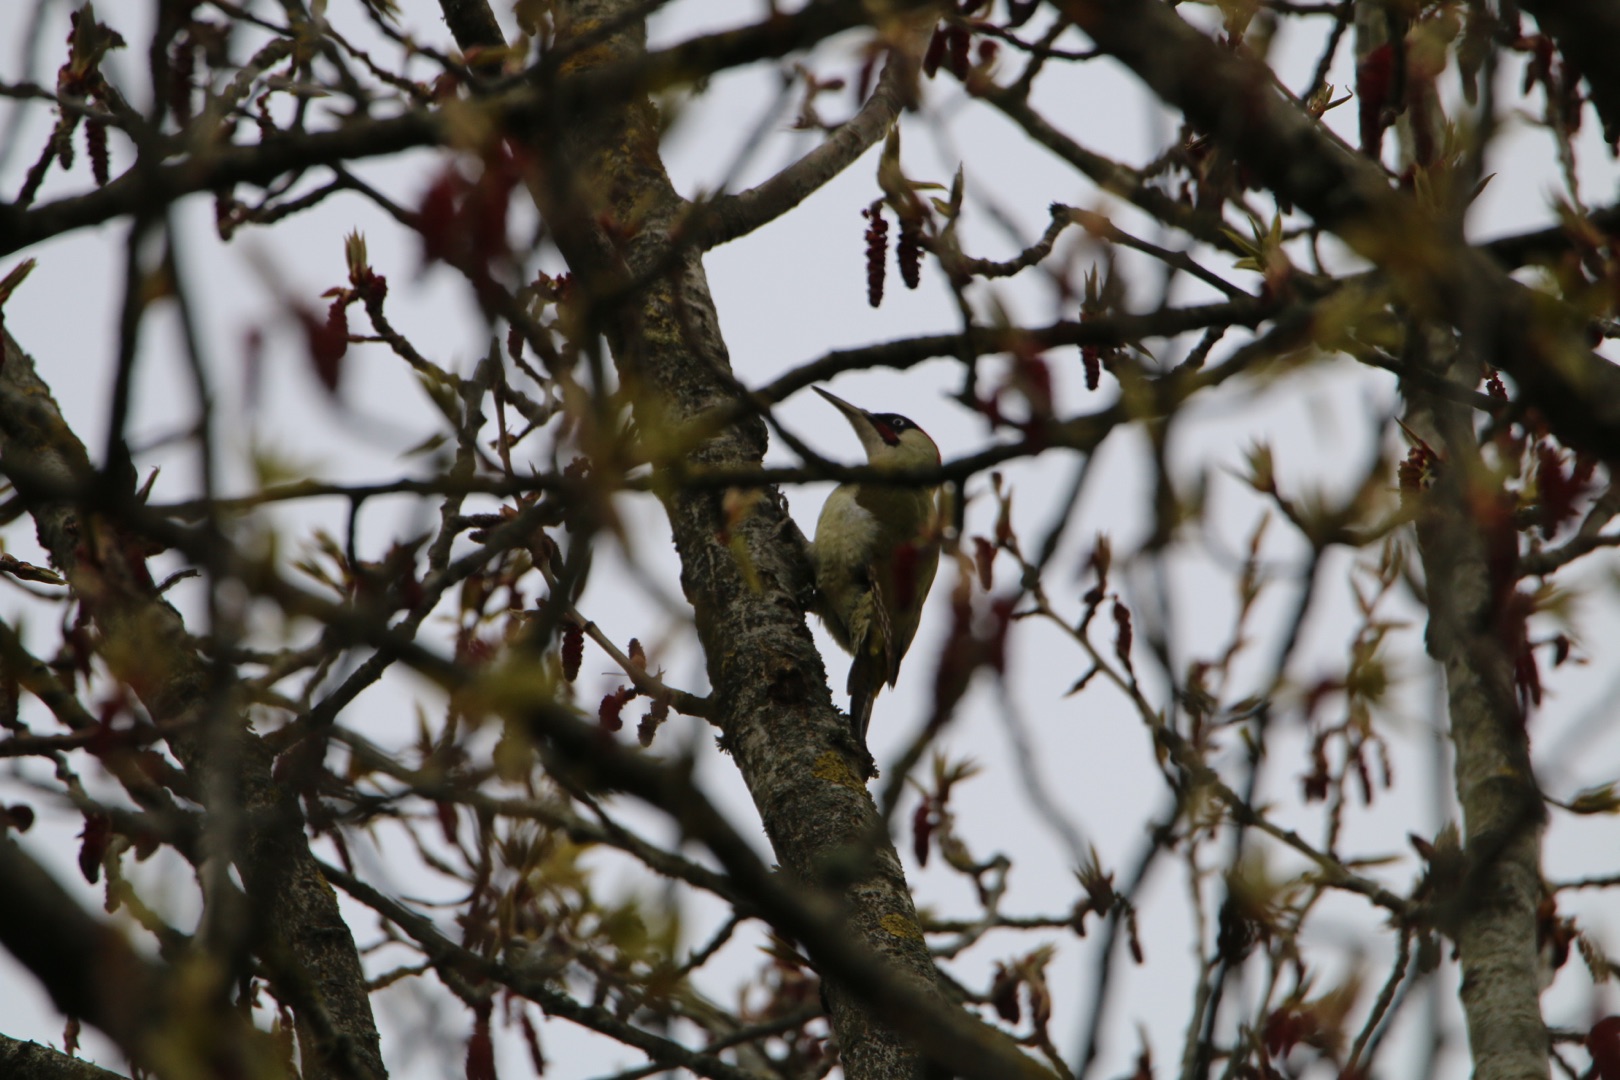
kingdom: Animalia
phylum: Chordata
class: Aves
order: Piciformes
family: Picidae
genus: Picus
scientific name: Picus viridis
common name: Grønspætte
